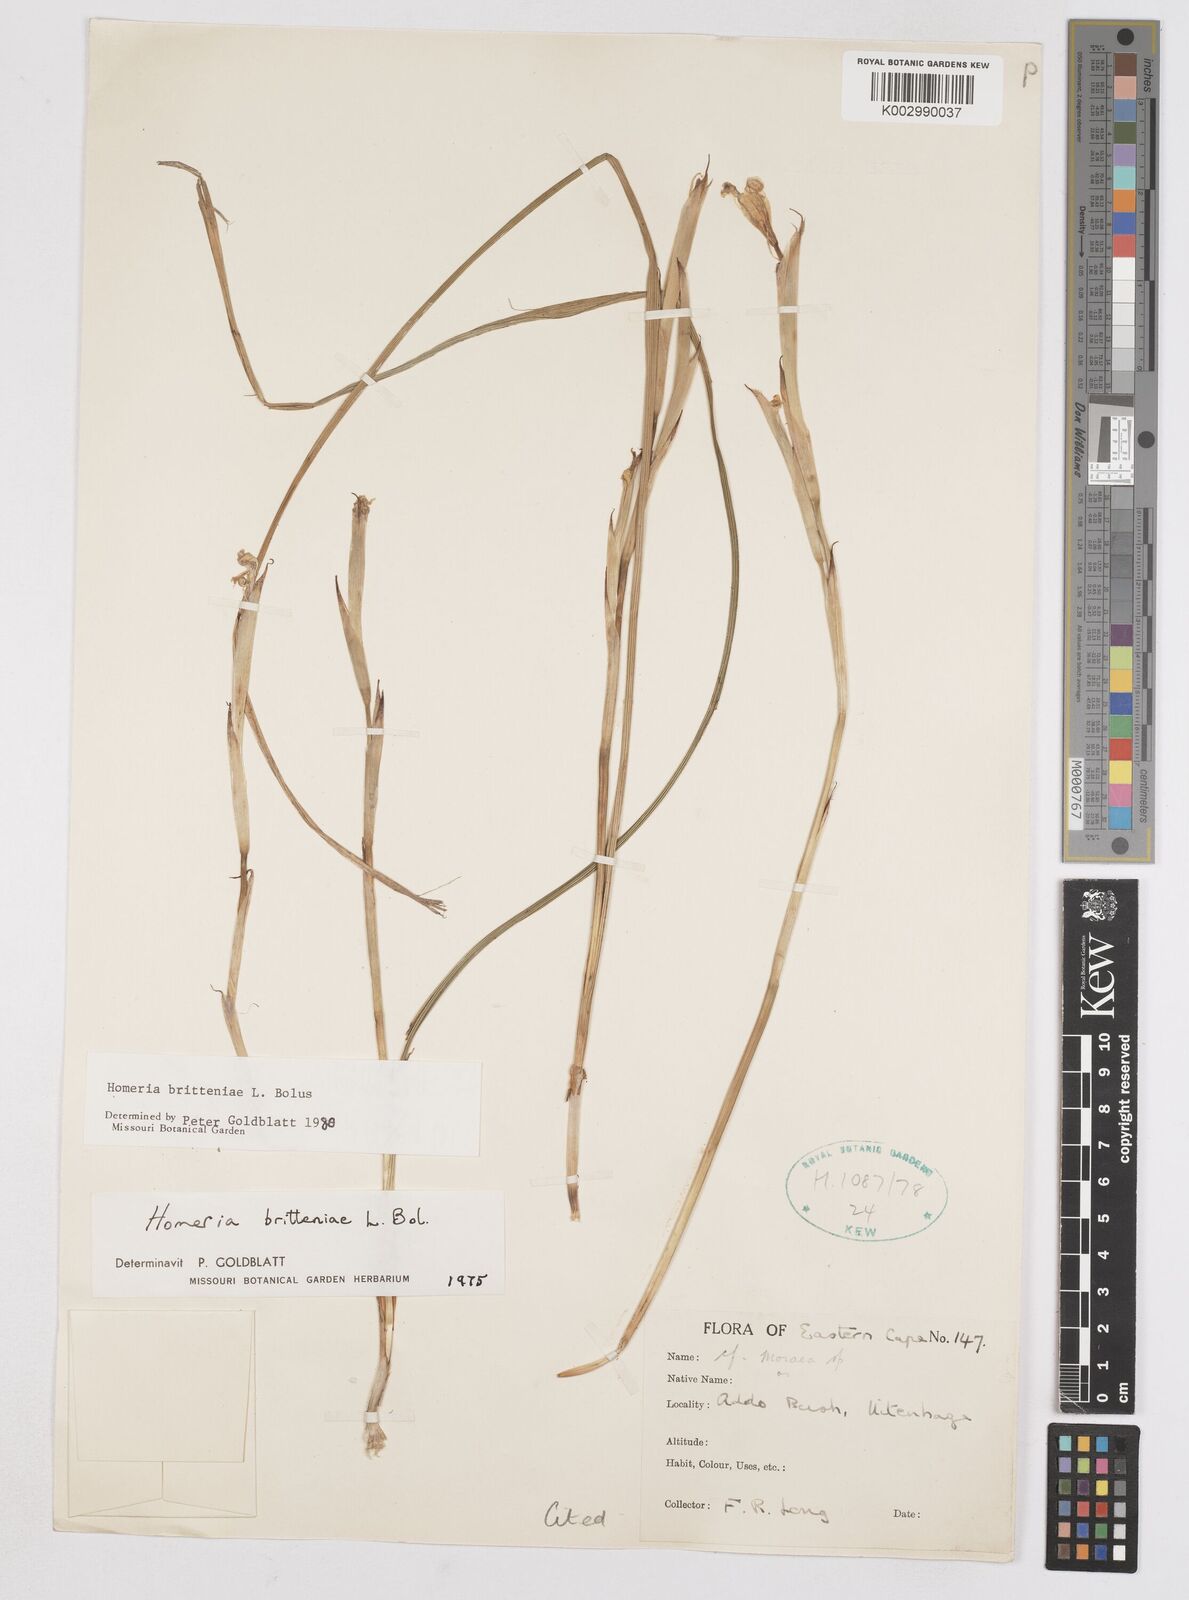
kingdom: Plantae
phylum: Tracheophyta
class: Liliopsida
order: Asparagales
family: Iridaceae
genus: Moraea
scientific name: Moraea britteniae
